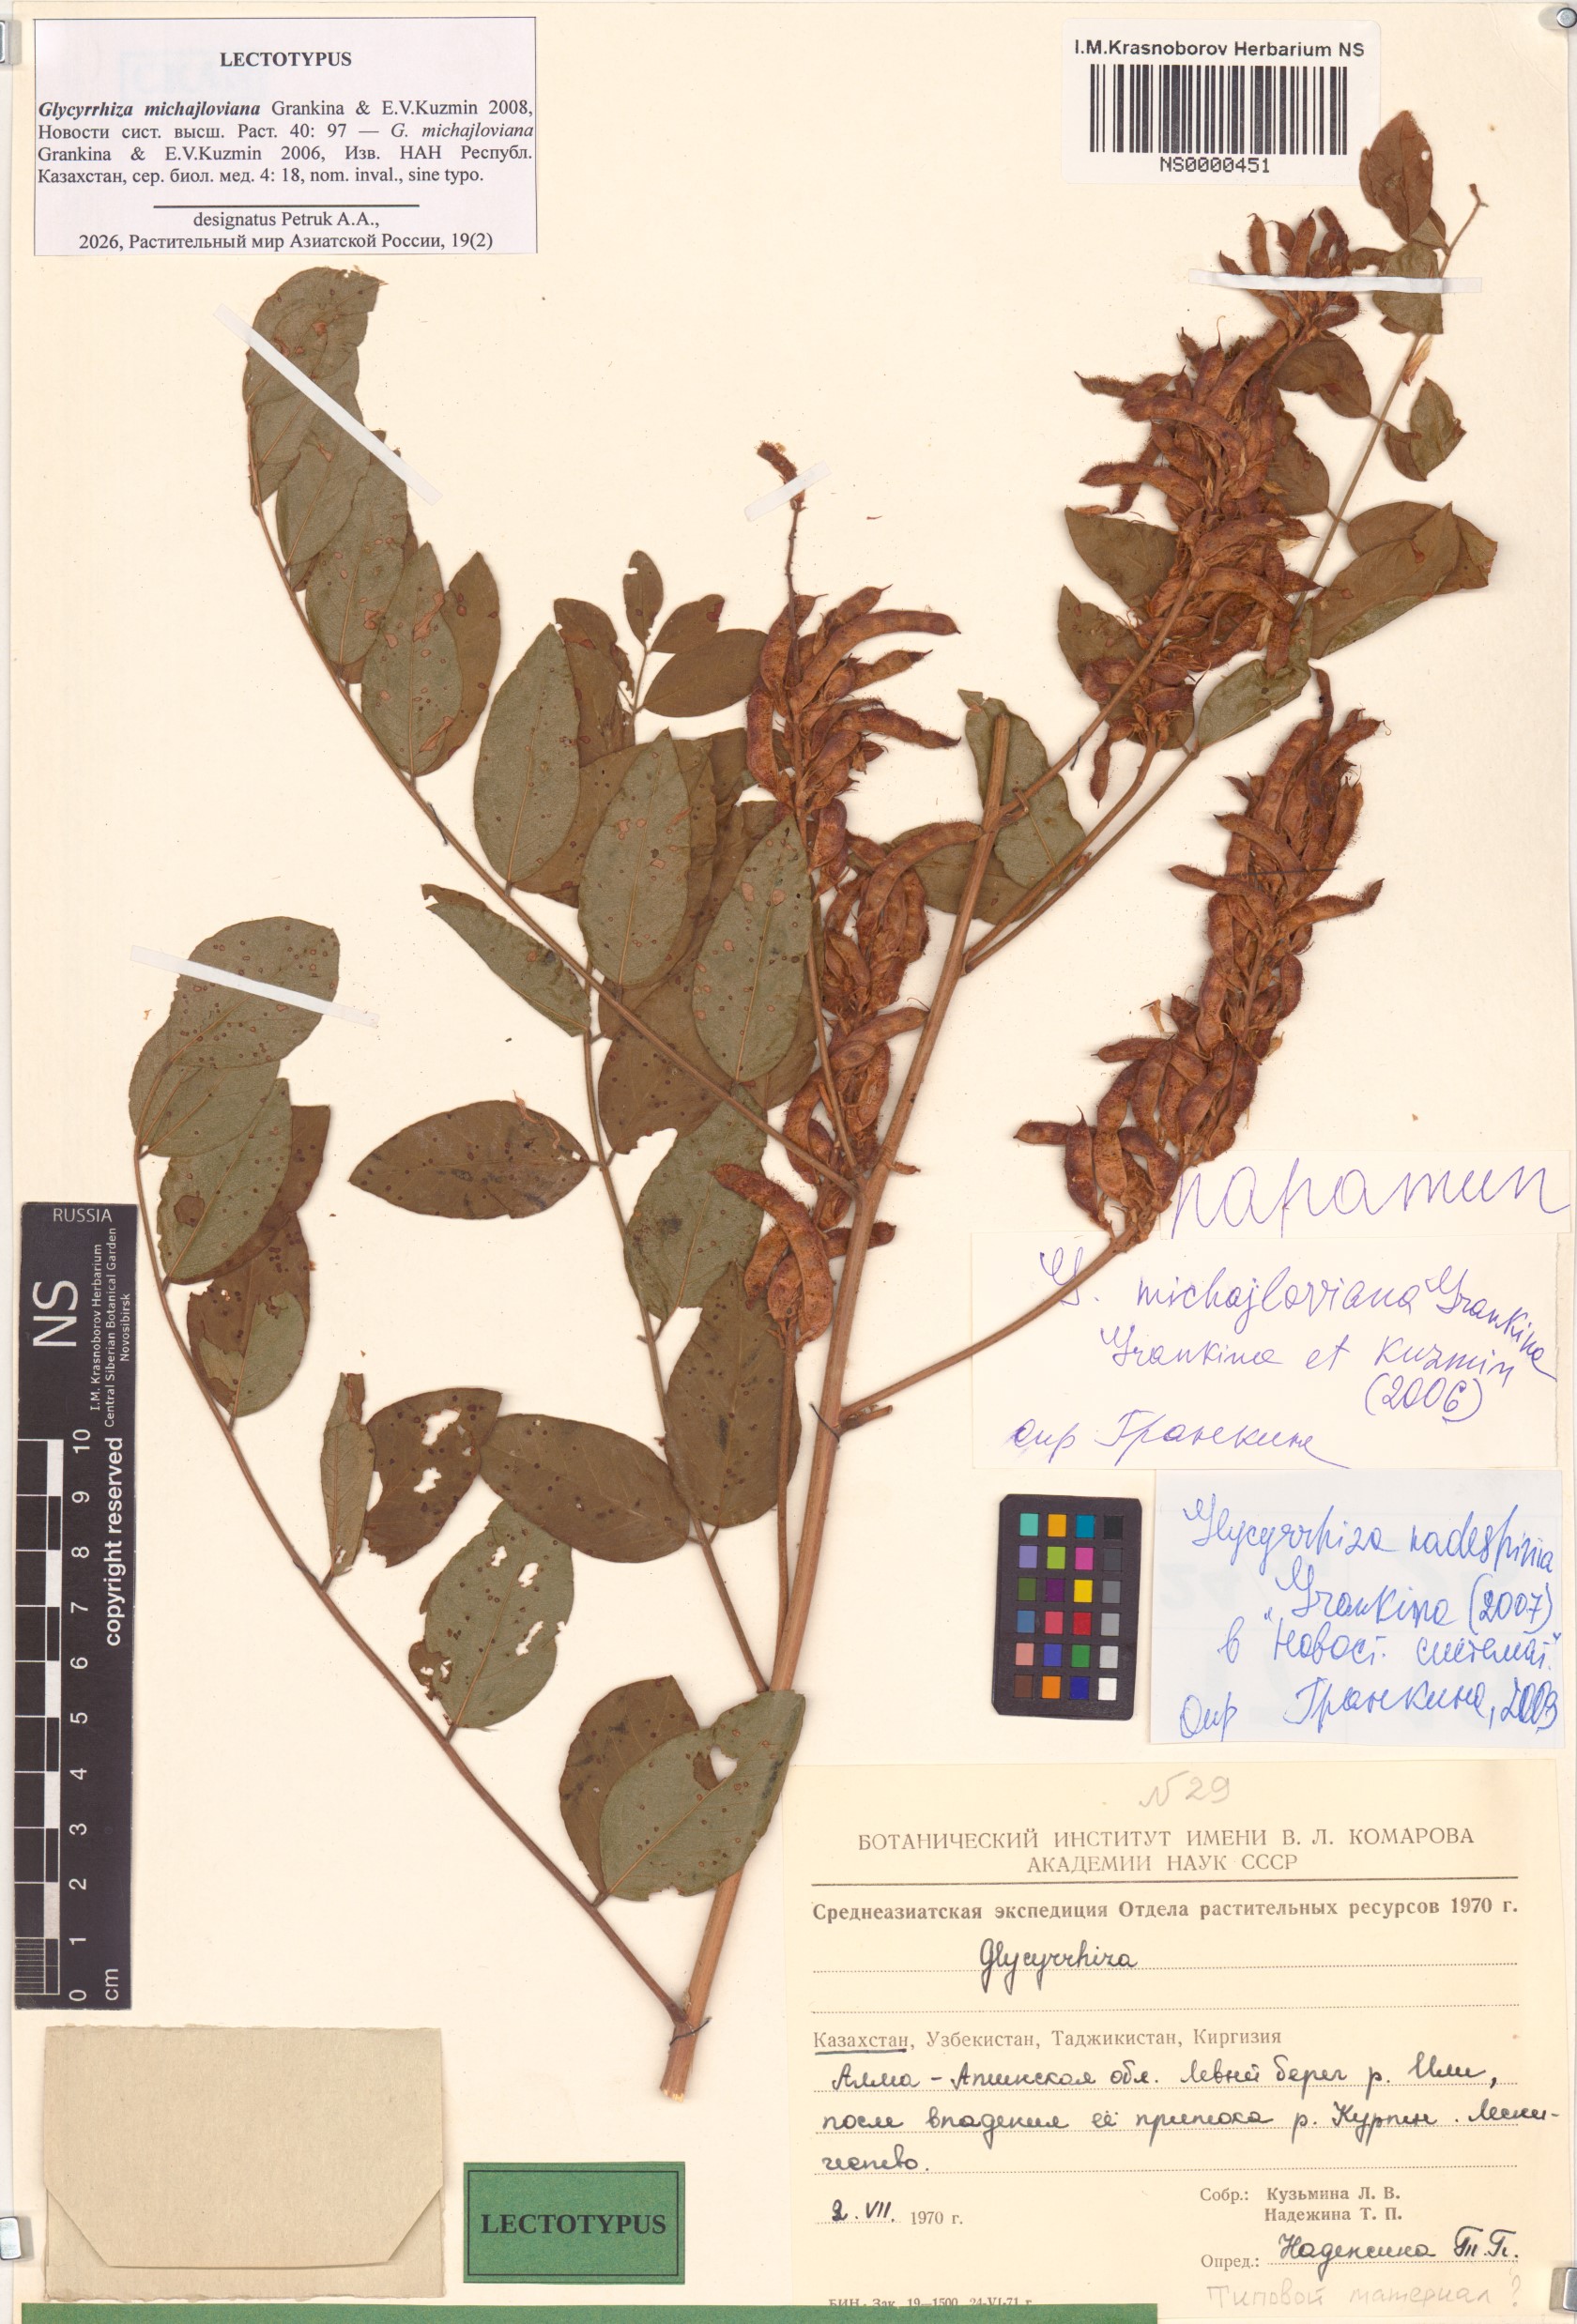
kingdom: Plantae
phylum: Tracheophyta
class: Magnoliopsida
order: Fabales
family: Fabaceae
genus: Glycyrrhiza
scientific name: Glycyrrhiza glabra
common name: Liquorice
